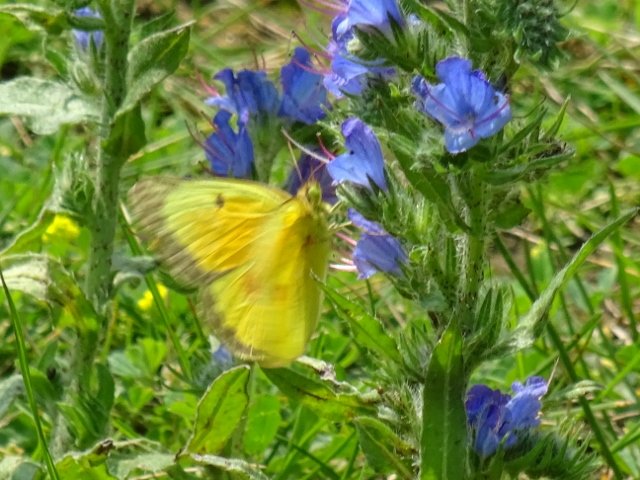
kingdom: Animalia
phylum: Arthropoda
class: Insecta
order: Lepidoptera
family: Pieridae
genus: Colias
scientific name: Colias eurytheme
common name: Orange Sulphur
